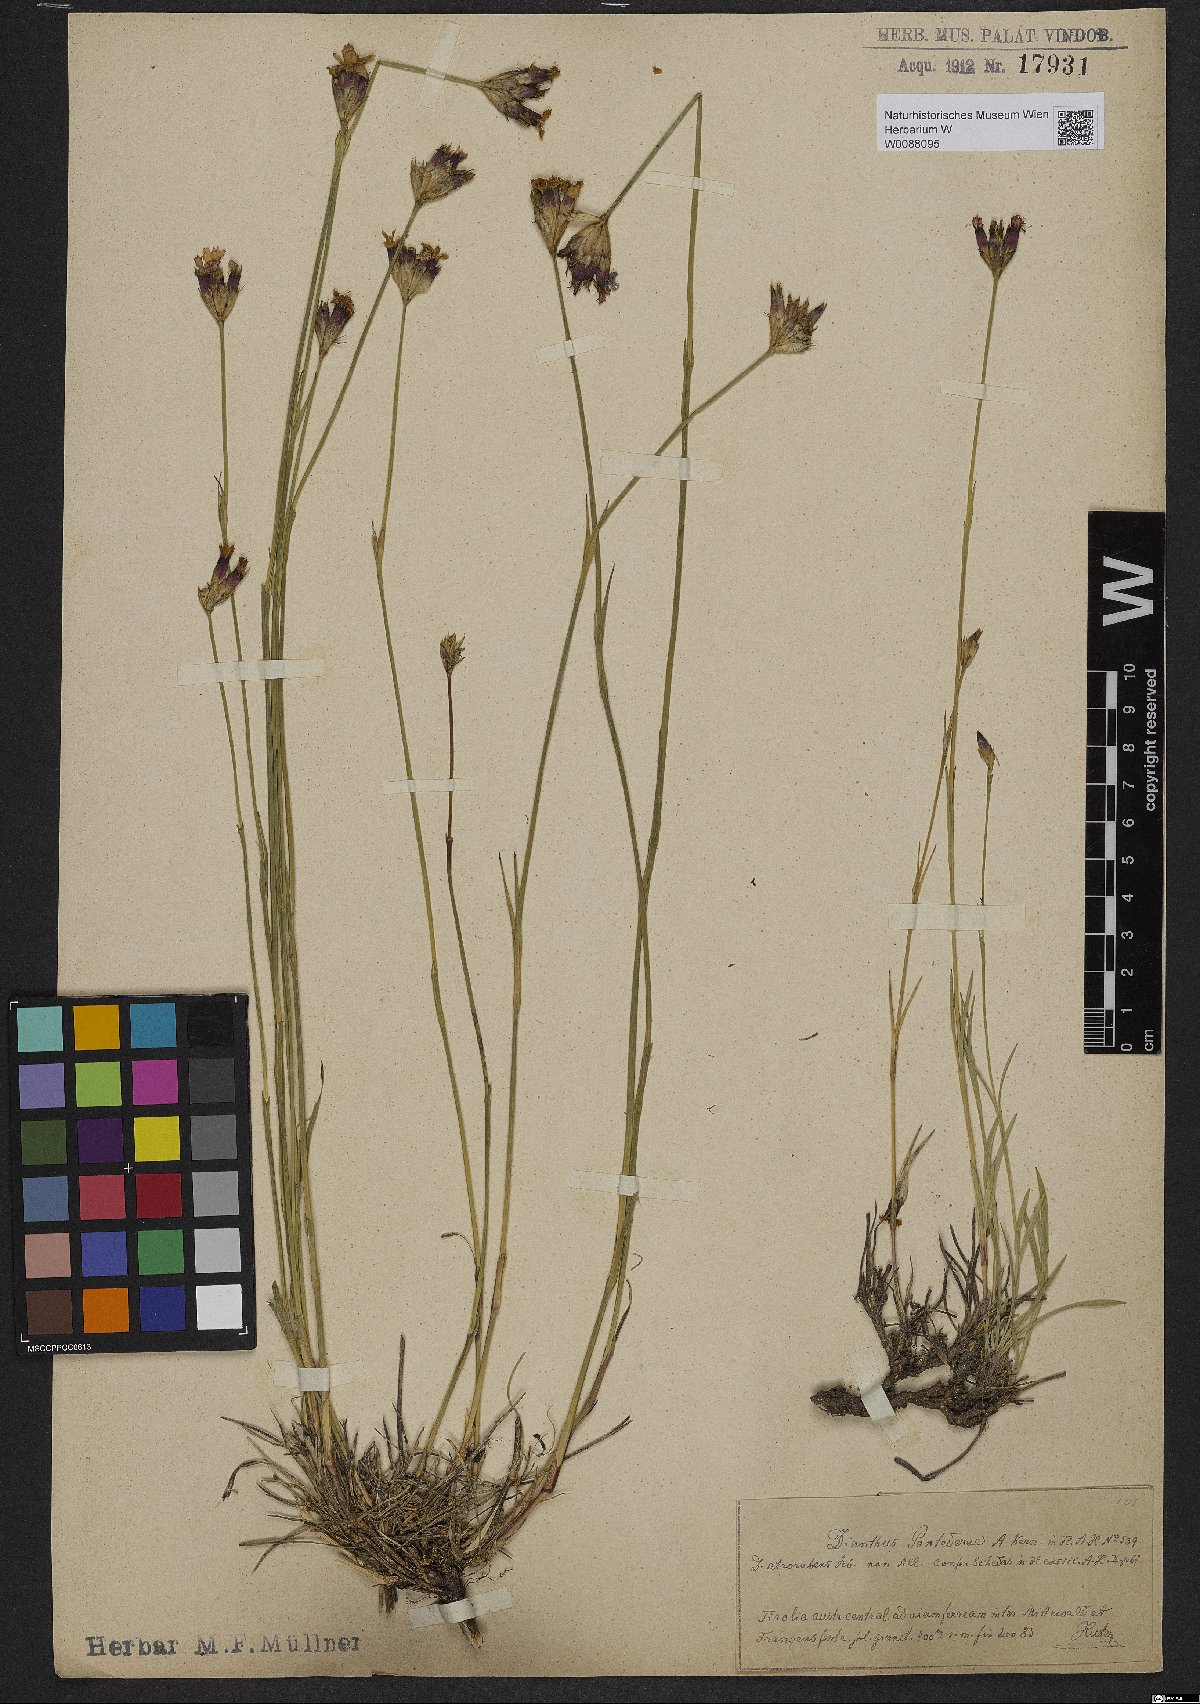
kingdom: Plantae
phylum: Tracheophyta
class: Magnoliopsida
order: Caryophyllales
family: Caryophyllaceae
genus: Dianthus
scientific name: Dianthus pontederae
